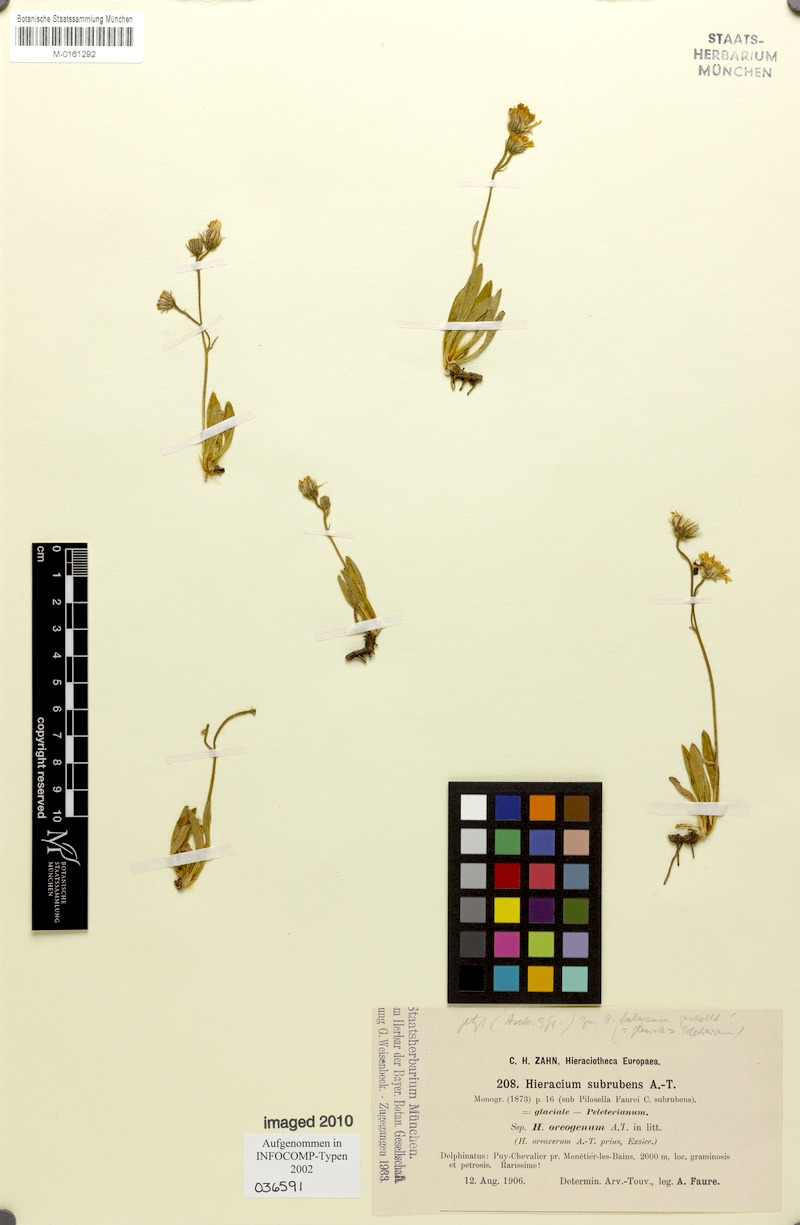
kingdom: Plantae
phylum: Tracheophyta
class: Magnoliopsida
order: Asterales
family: Asteraceae
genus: Pilosella
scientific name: Pilosella subrubens
